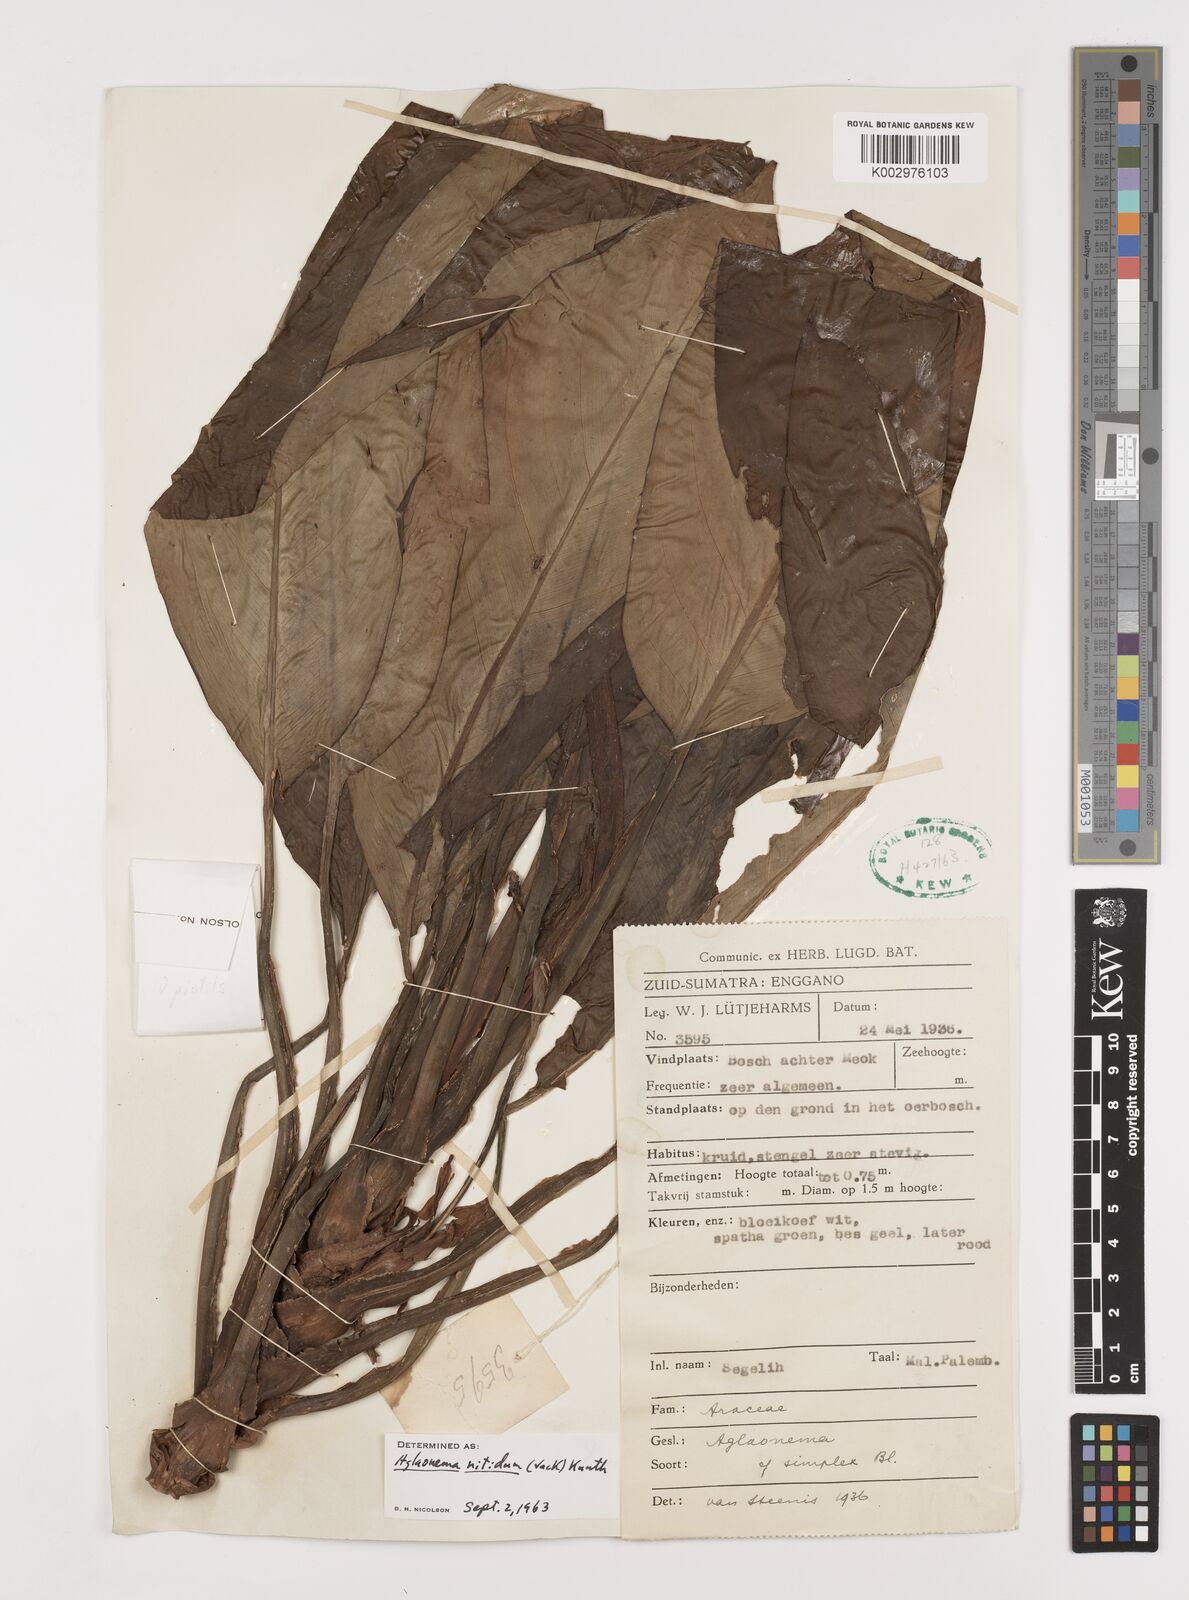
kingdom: Plantae
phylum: Tracheophyta
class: Liliopsida
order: Alismatales
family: Araceae
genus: Aglaonema
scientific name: Aglaonema nitidum
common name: Aglaonema aroid
